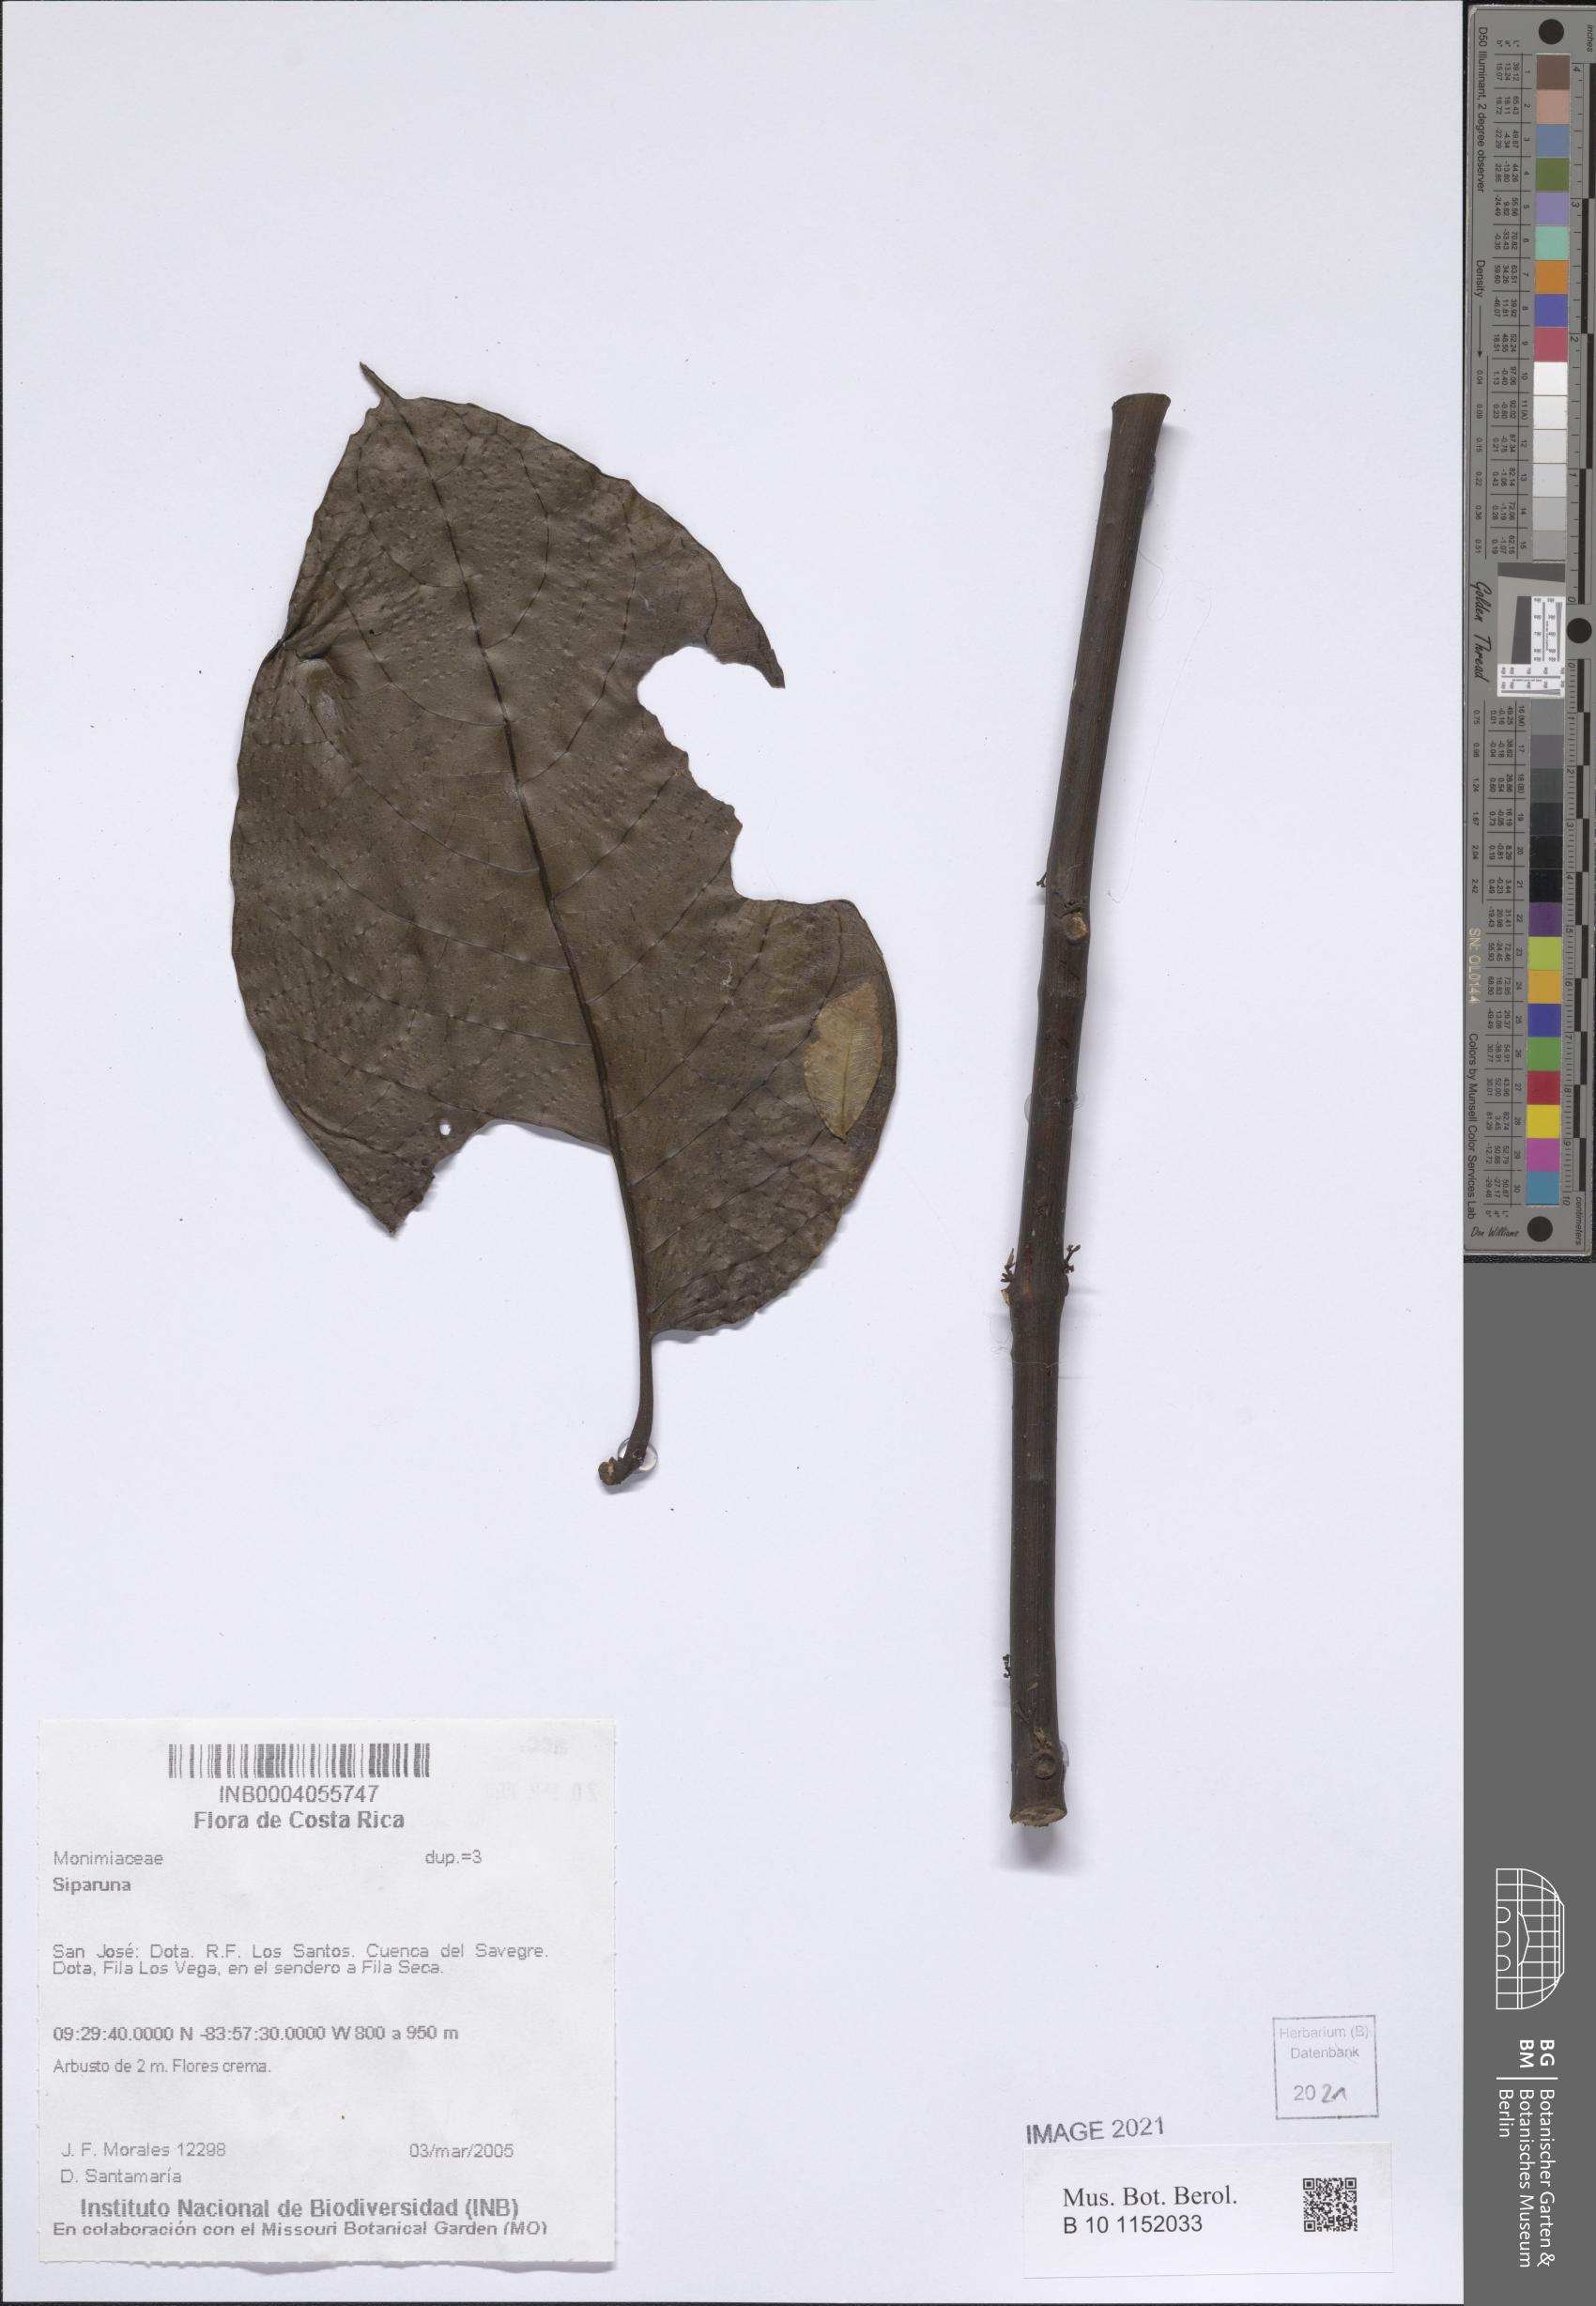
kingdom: Plantae
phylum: Tracheophyta
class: Magnoliopsida
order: Laurales
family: Siparunaceae
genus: Siparuna
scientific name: Siparuna
